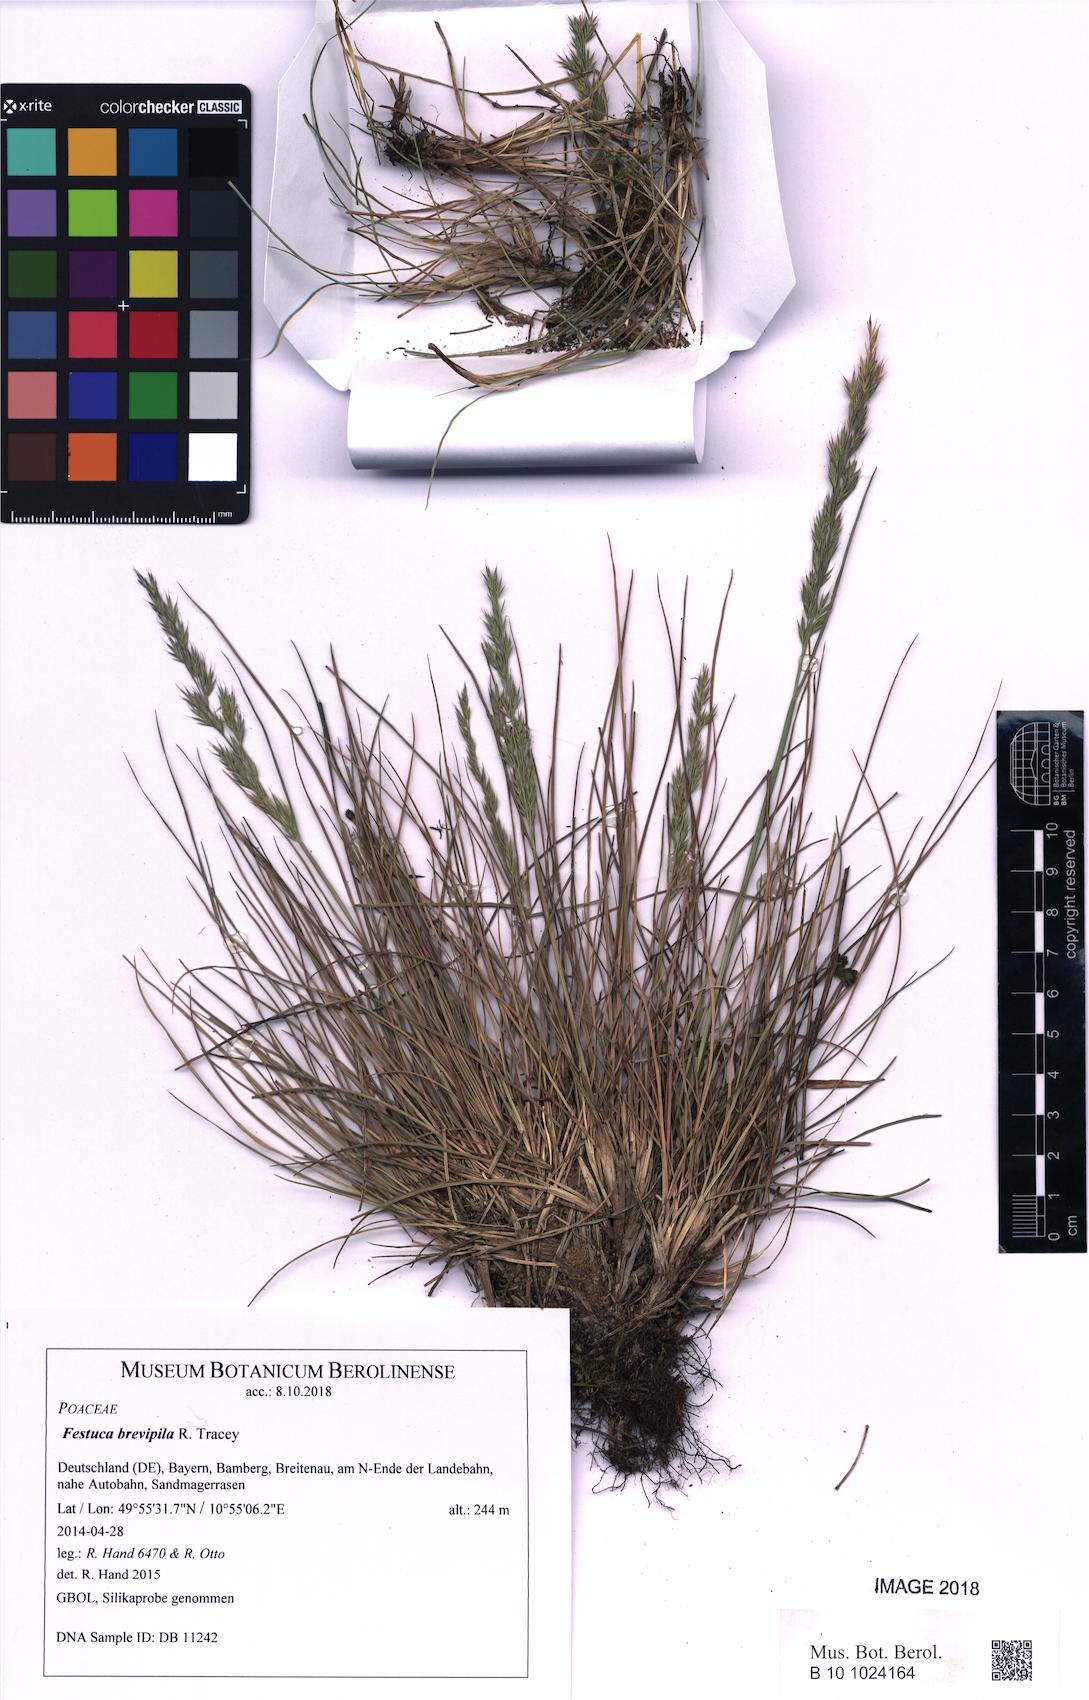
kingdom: Plantae
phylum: Tracheophyta
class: Liliopsida
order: Poales
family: Poaceae
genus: Festuca
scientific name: Festuca trachyphylla
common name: Hard fescue
